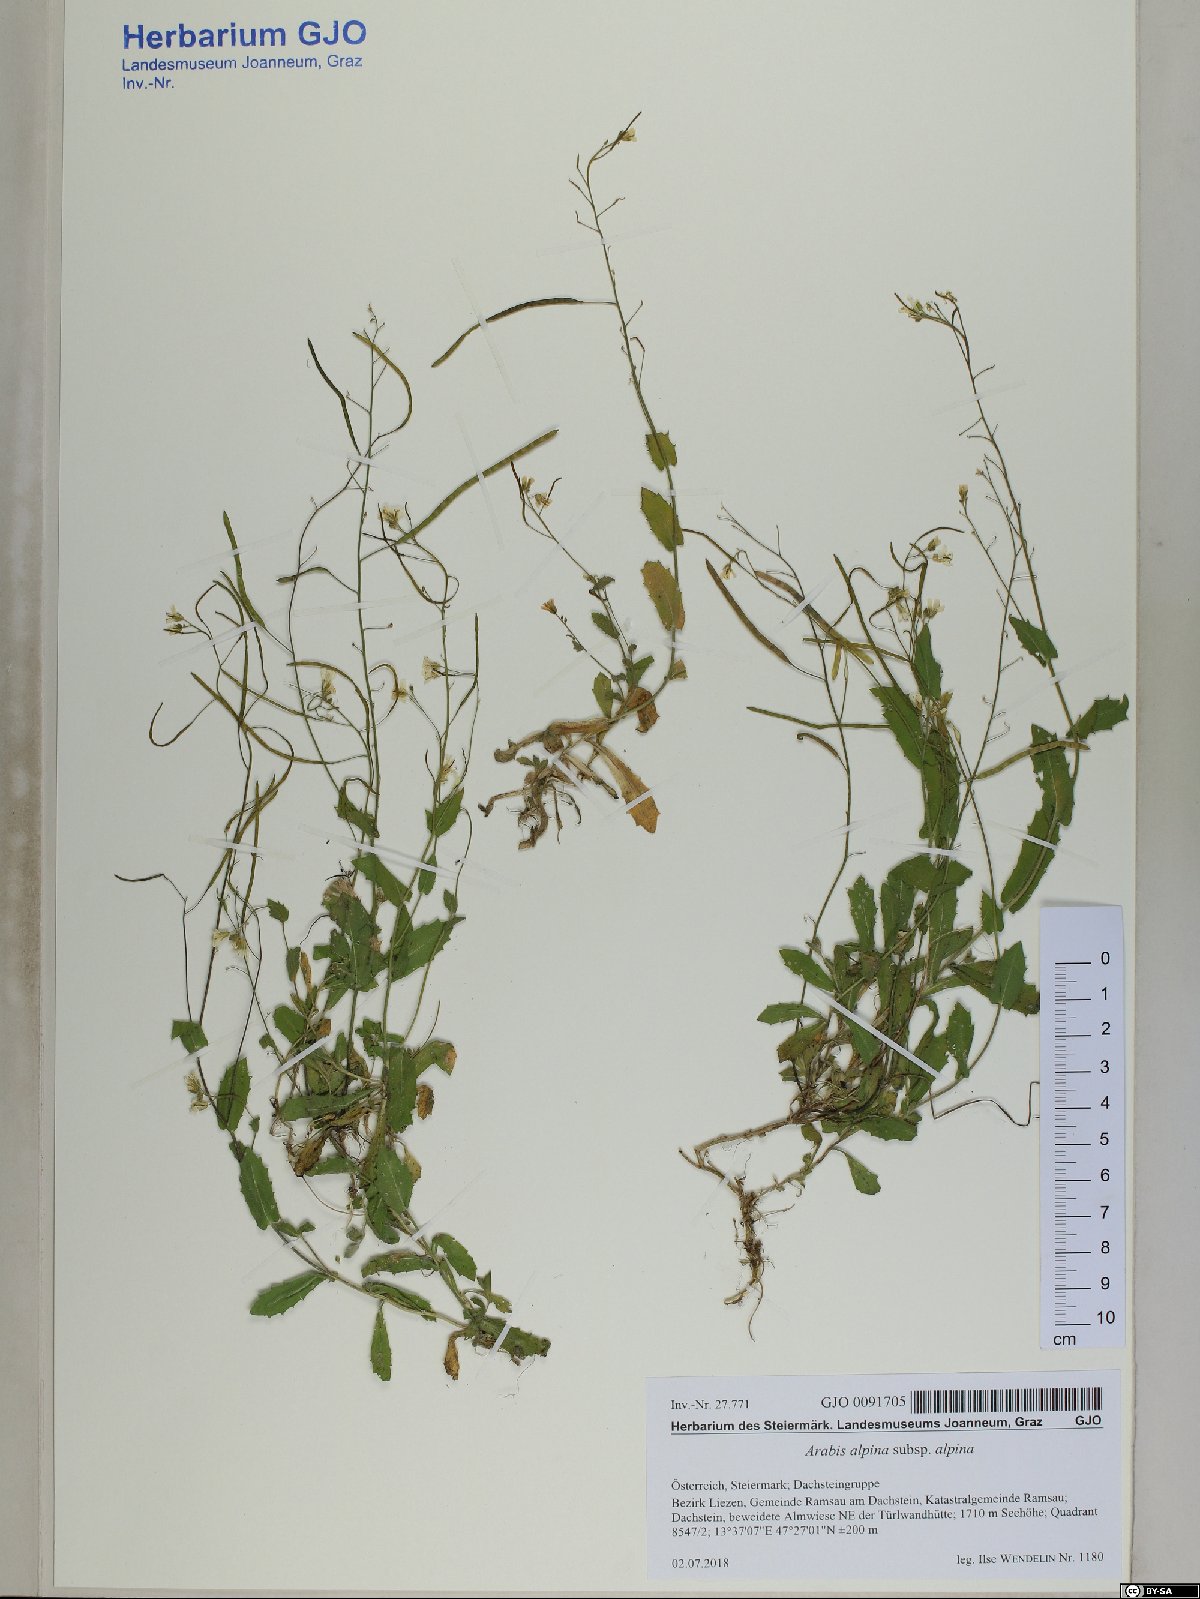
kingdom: Plantae
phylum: Tracheophyta
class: Magnoliopsida
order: Brassicales
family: Brassicaceae
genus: Arabis
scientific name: Arabis alpina
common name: Alpine rock-cress
